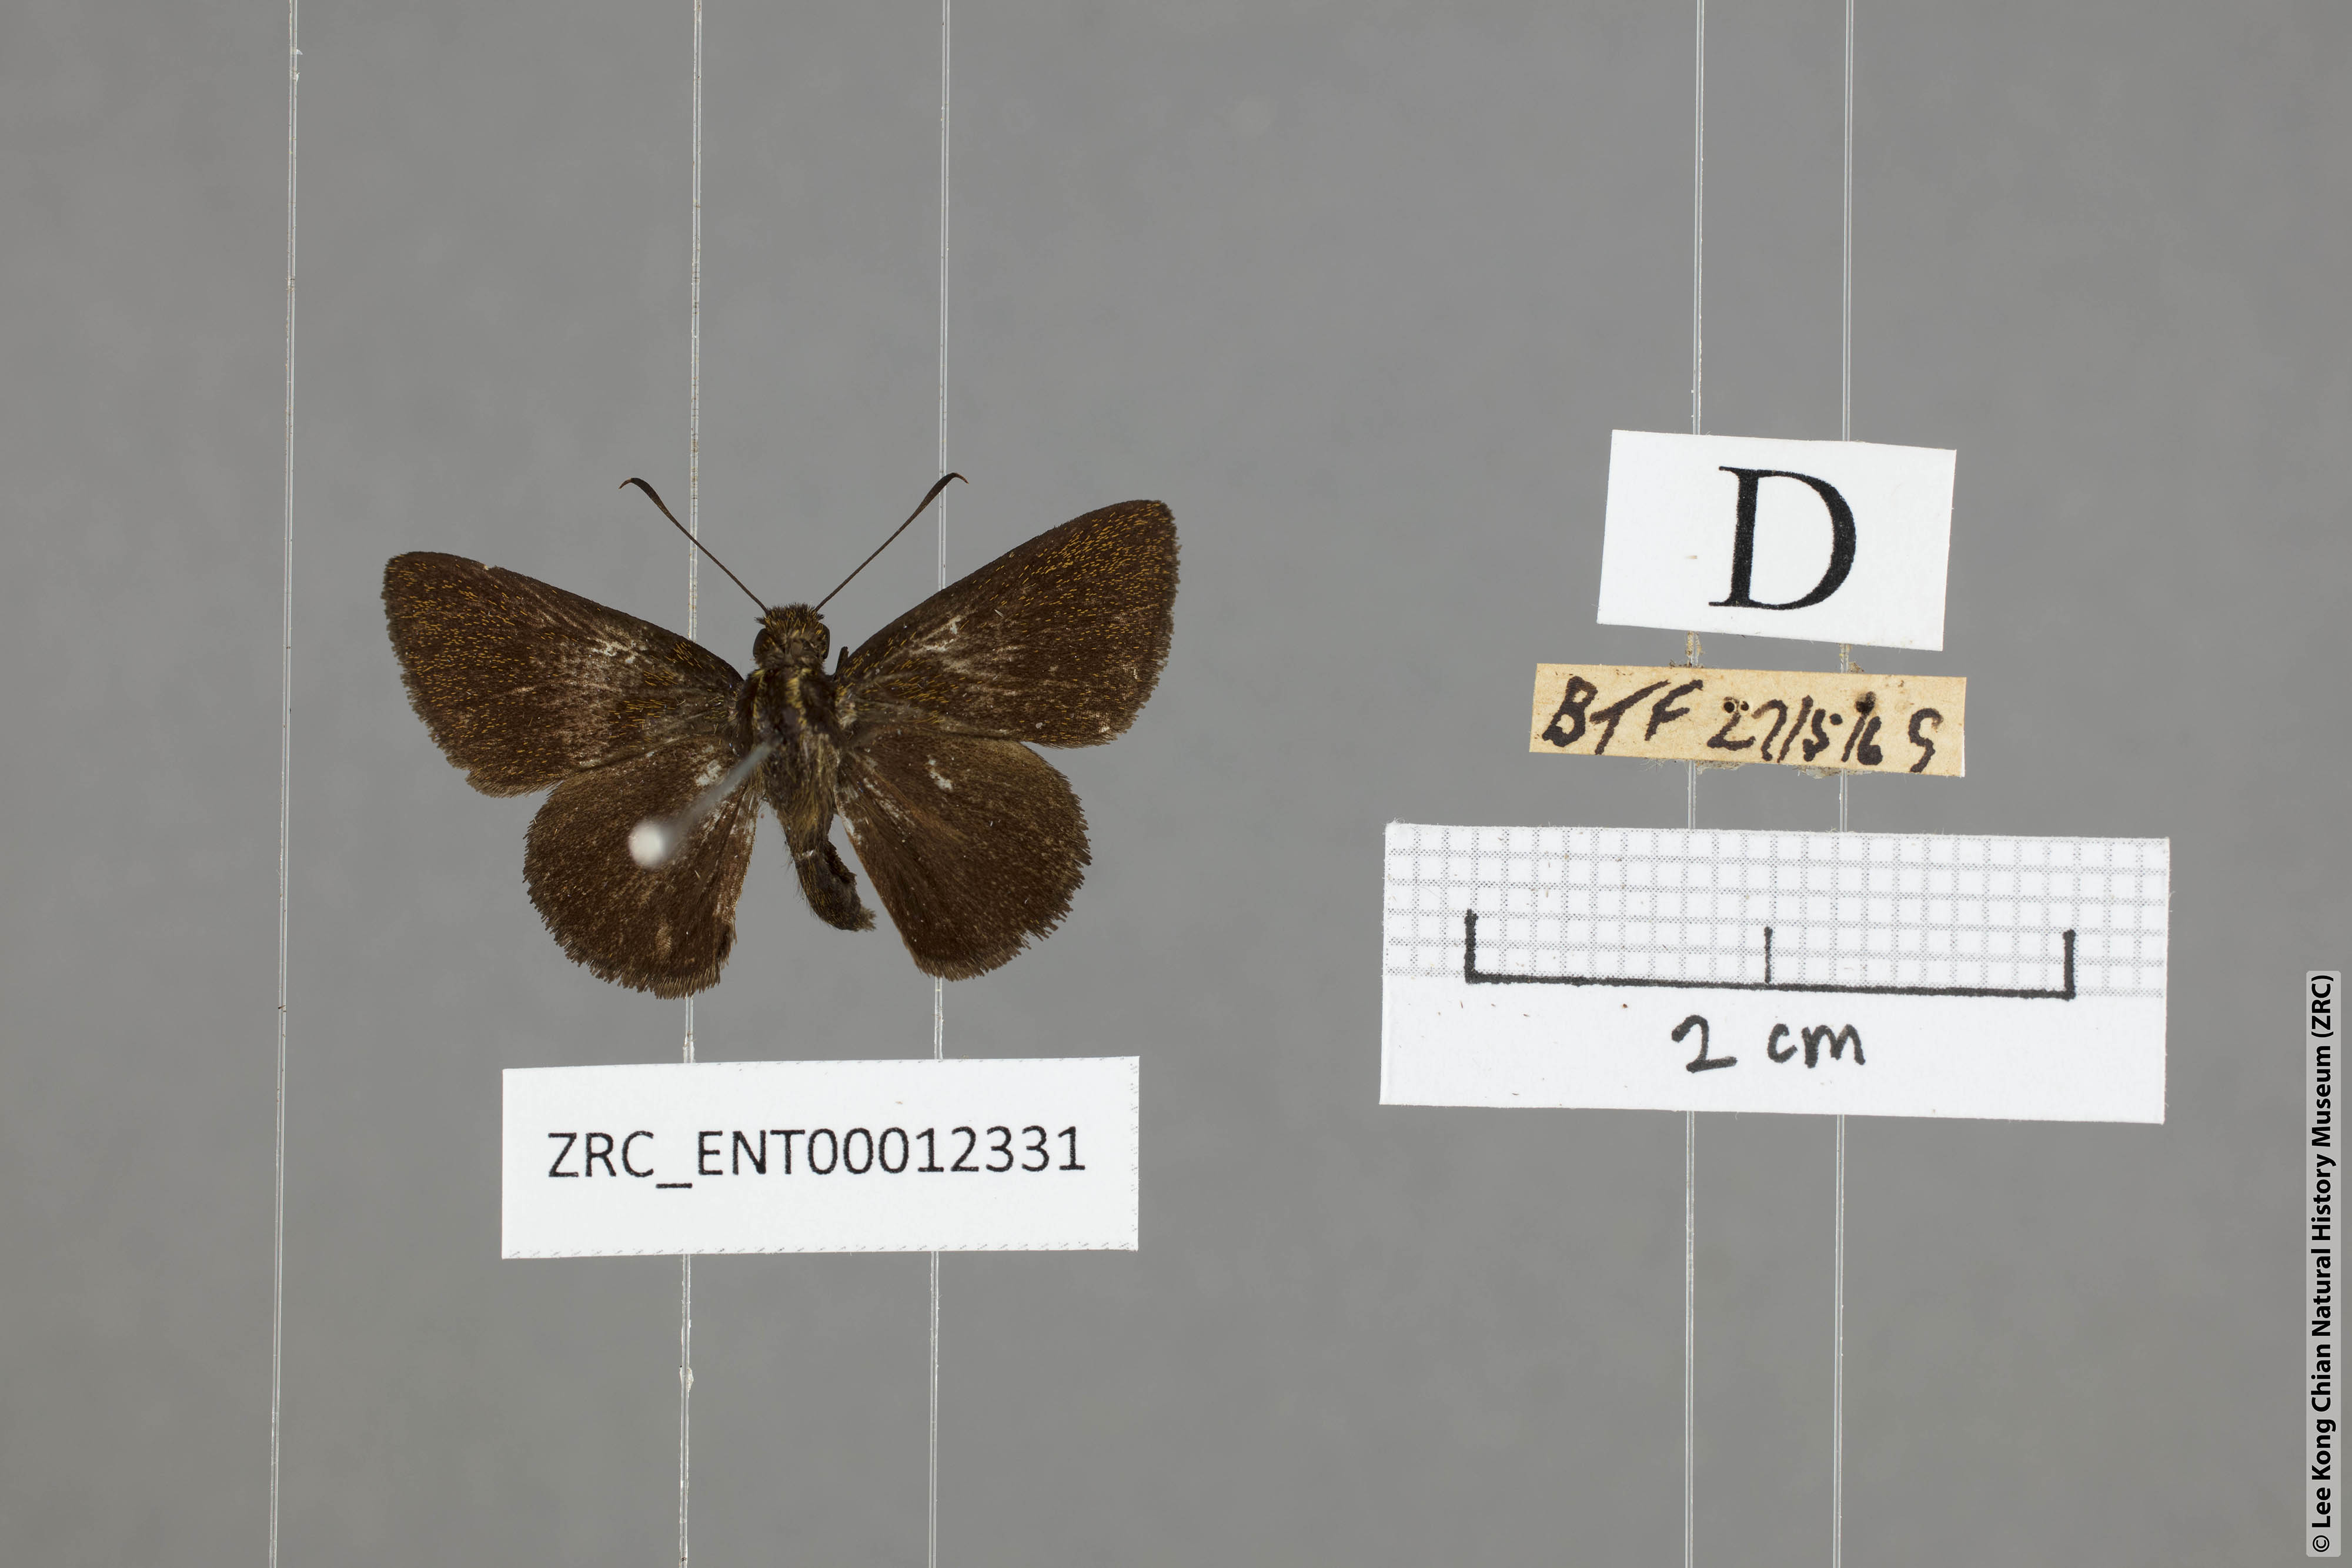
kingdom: Animalia
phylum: Arthropoda
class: Insecta
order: Lepidoptera
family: Hesperiidae
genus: Arnetta
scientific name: Arnetta verones
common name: Sumatran bob
